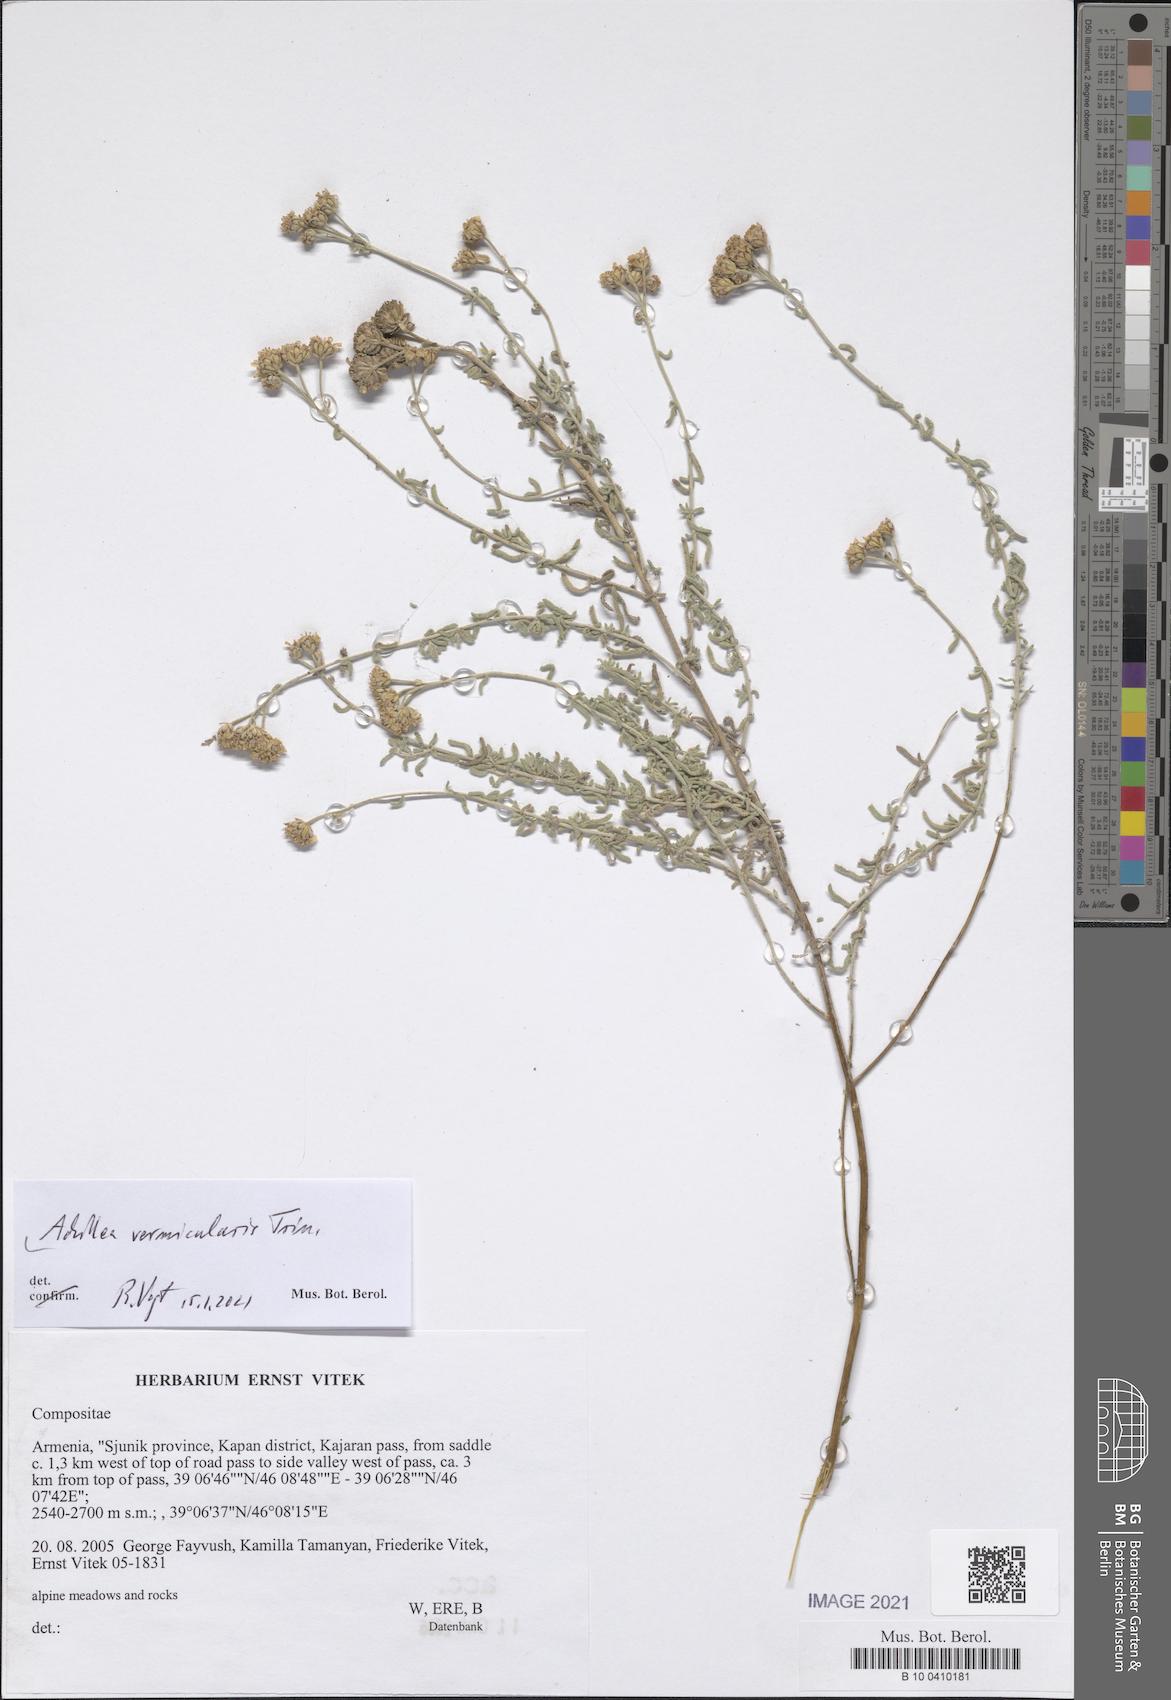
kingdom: Plantae
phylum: Tracheophyta
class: Magnoliopsida
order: Asterales
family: Asteraceae
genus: Achillea
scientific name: Achillea vermicularis
